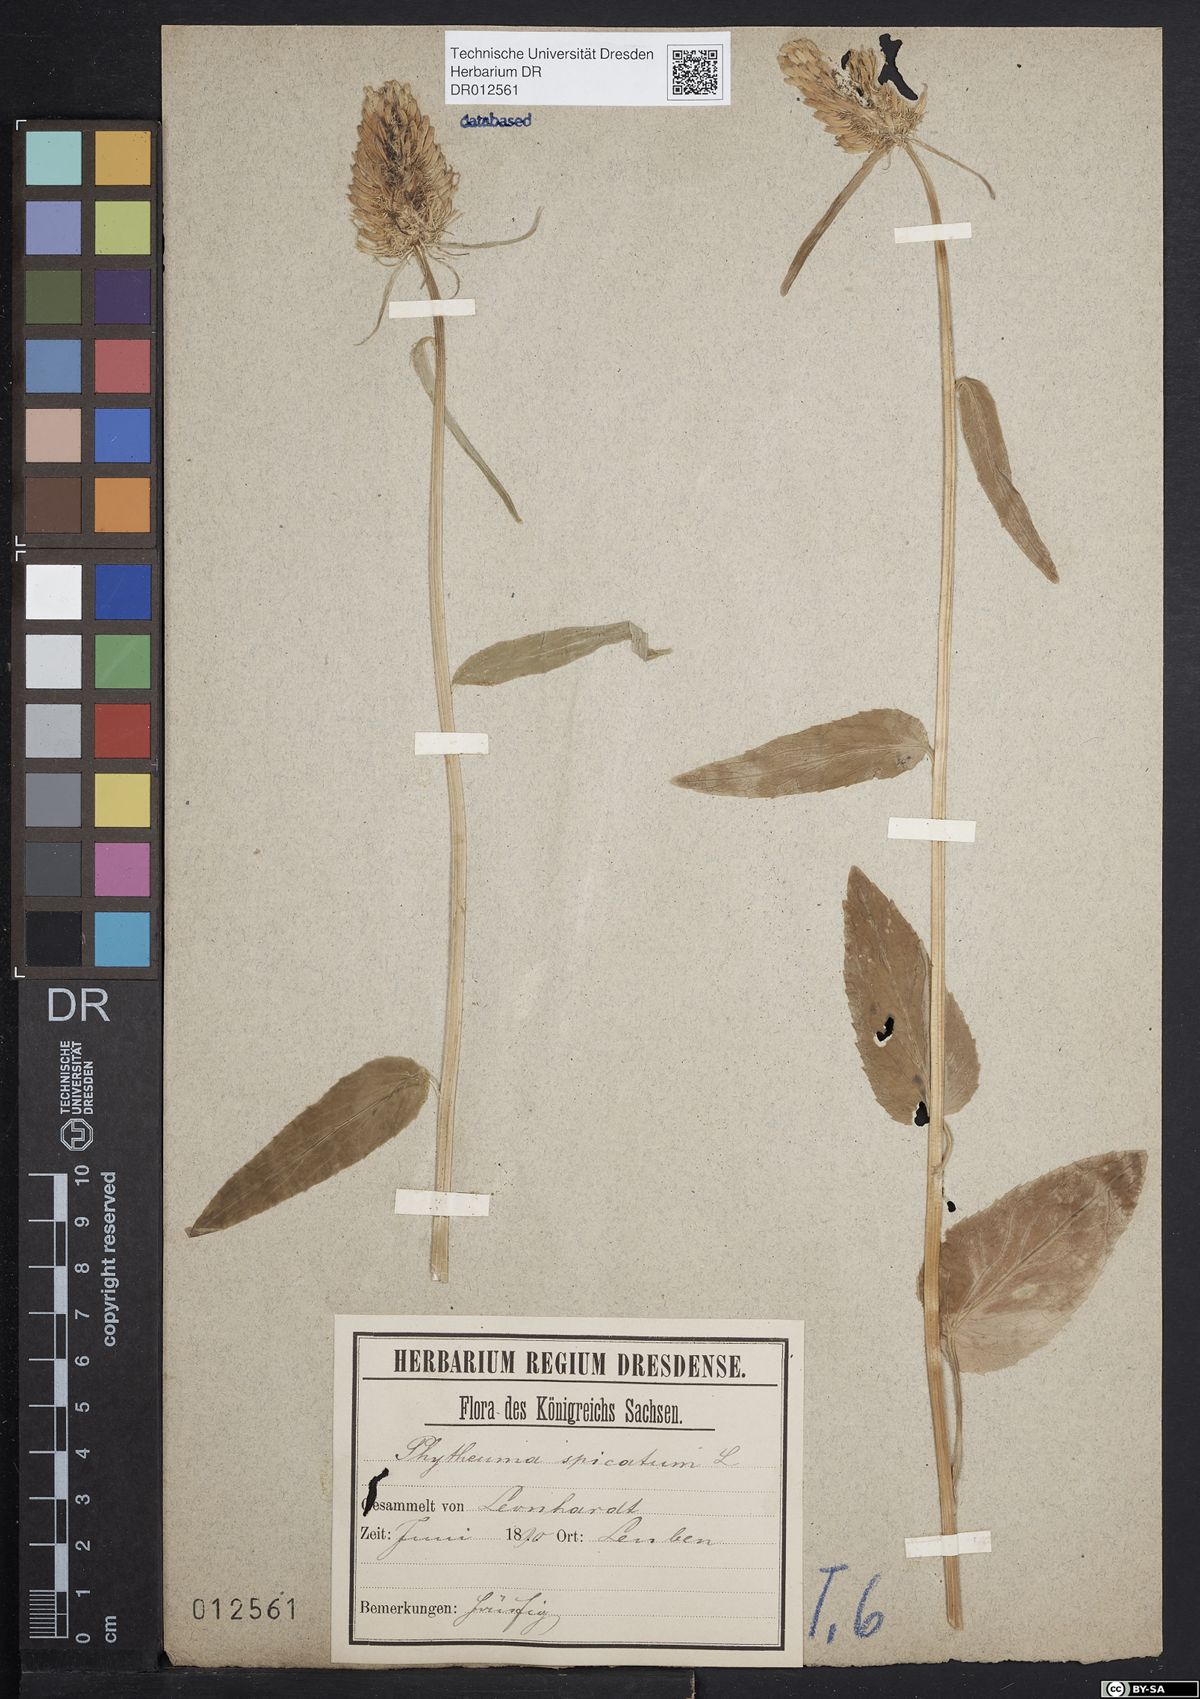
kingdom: Plantae
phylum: Tracheophyta
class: Magnoliopsida
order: Asterales
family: Campanulaceae
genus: Phyteuma
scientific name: Phyteuma spicatum
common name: Spiked rampion
